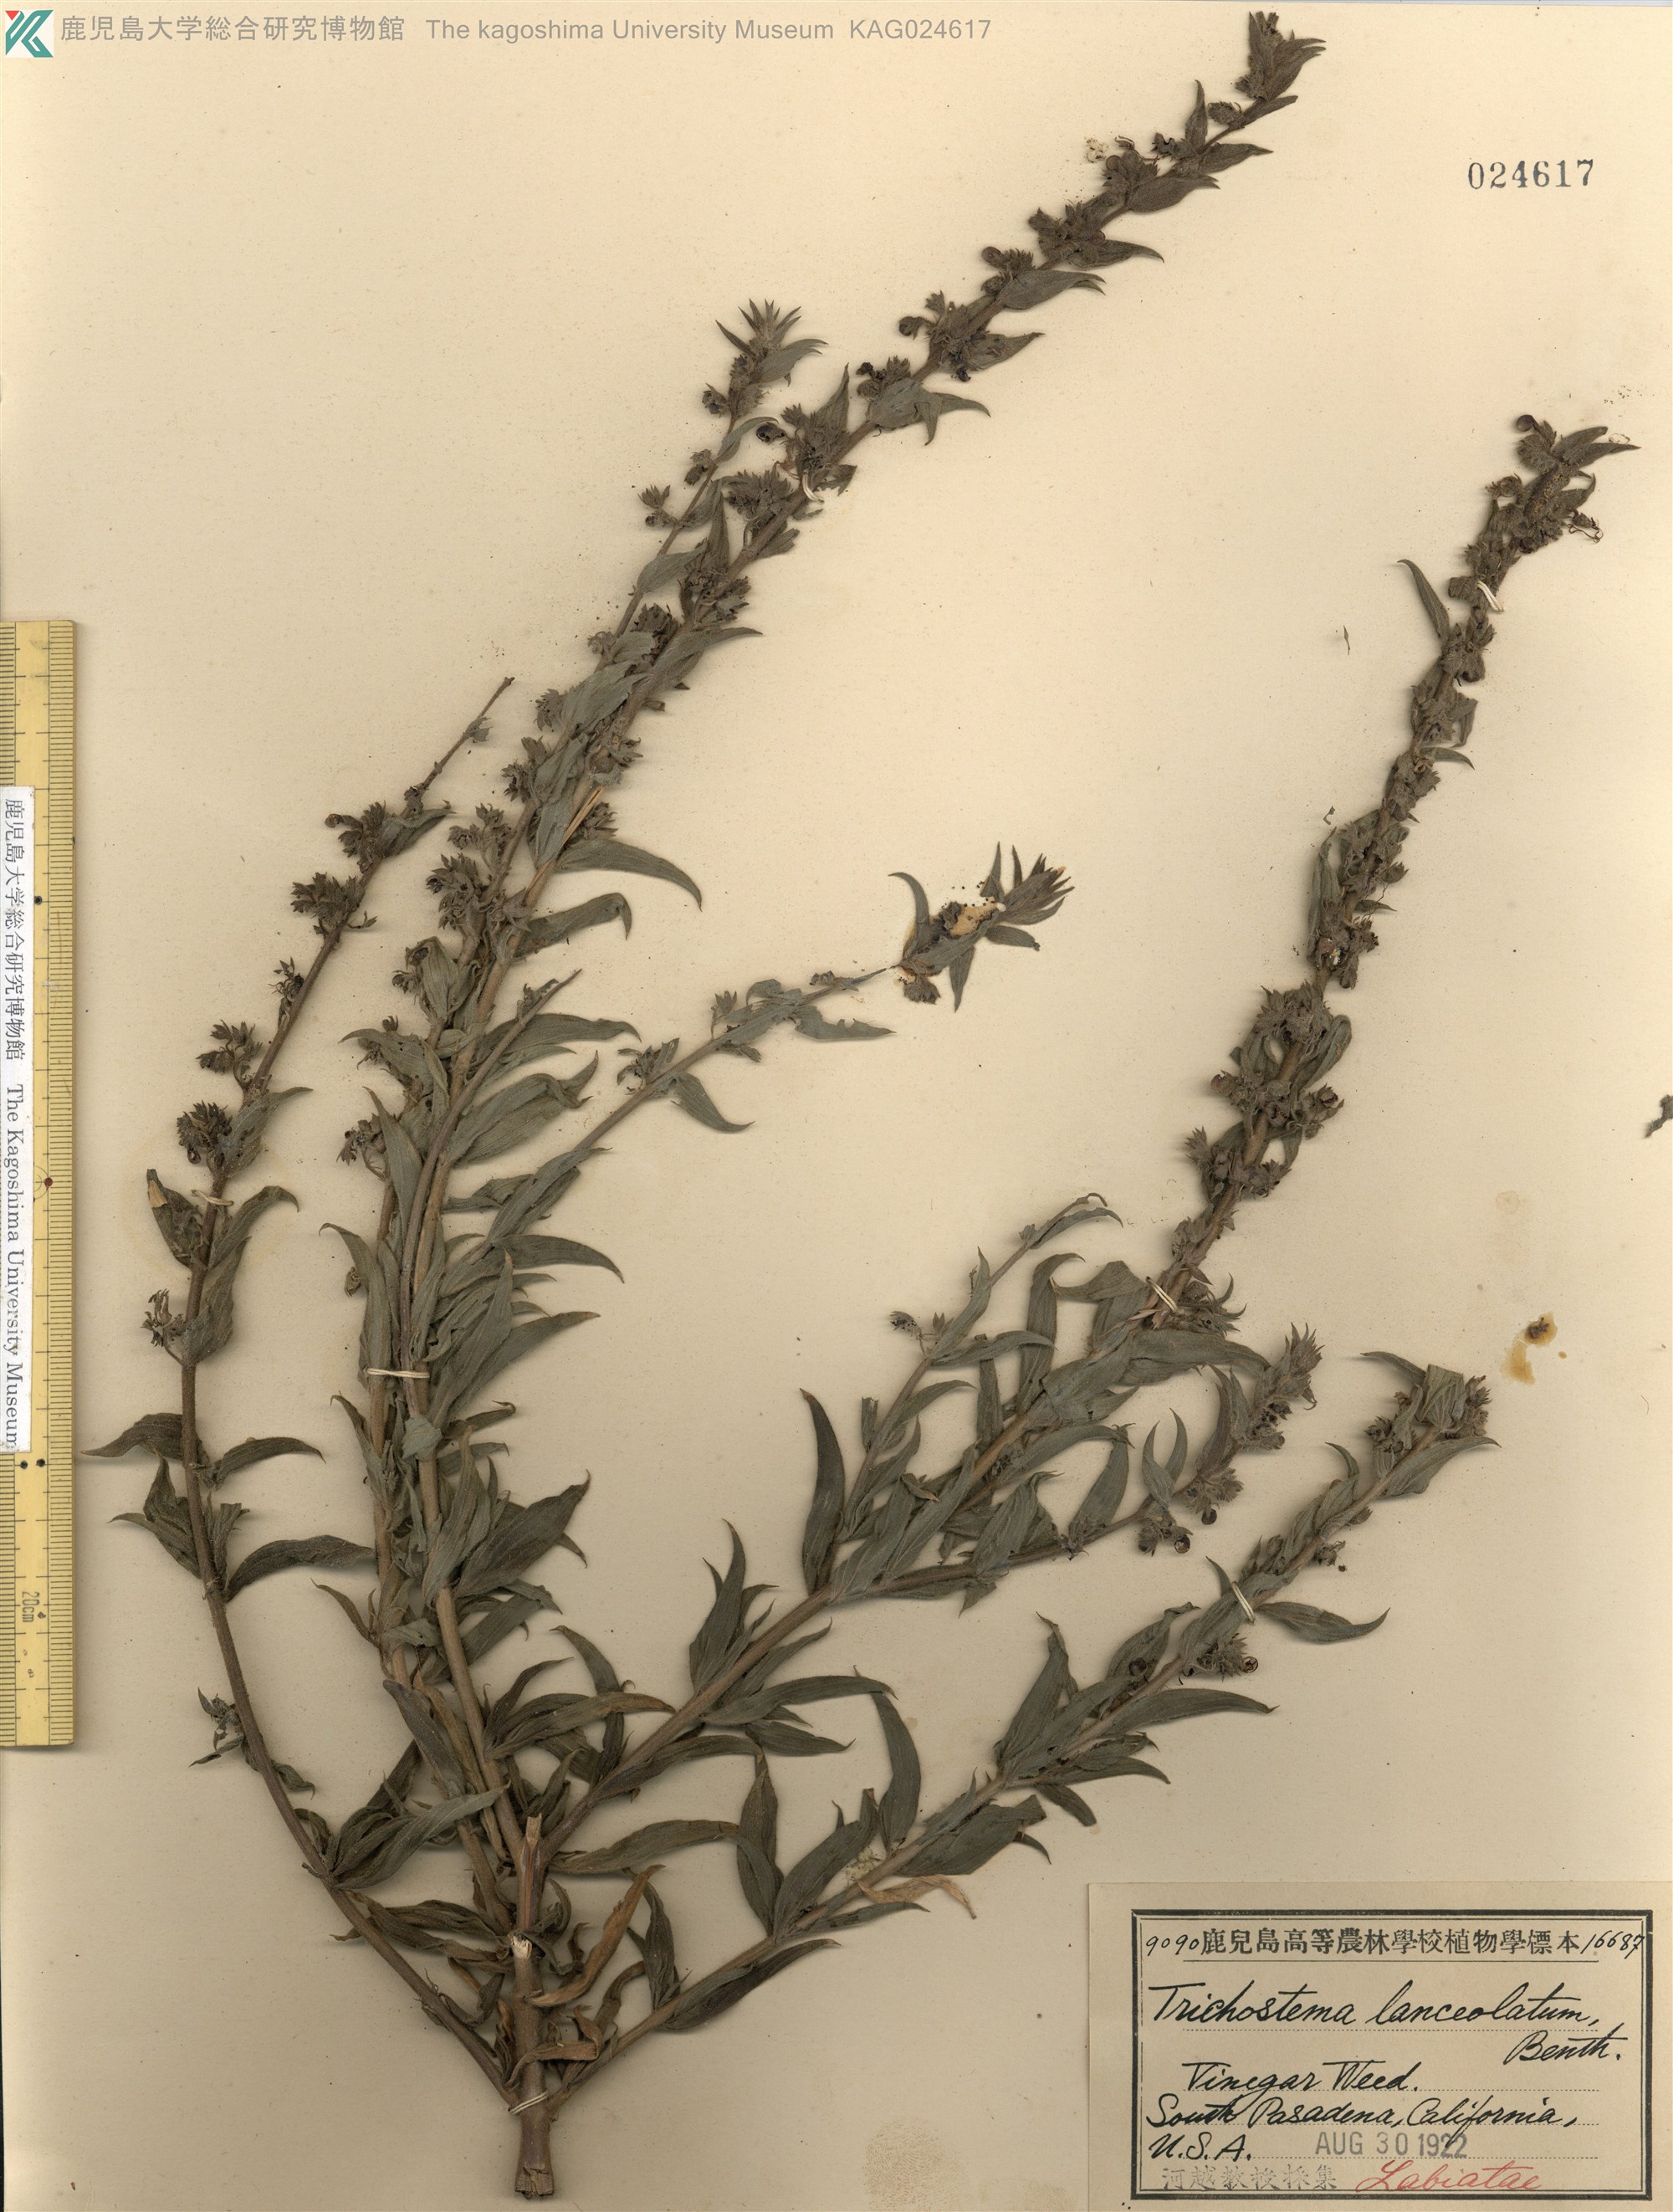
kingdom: Plantae
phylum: Tracheophyta
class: Magnoliopsida
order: Lamiales
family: Lamiaceae
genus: Trichostema
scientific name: Trichostema lanceolatum
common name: Vinegar-weed
